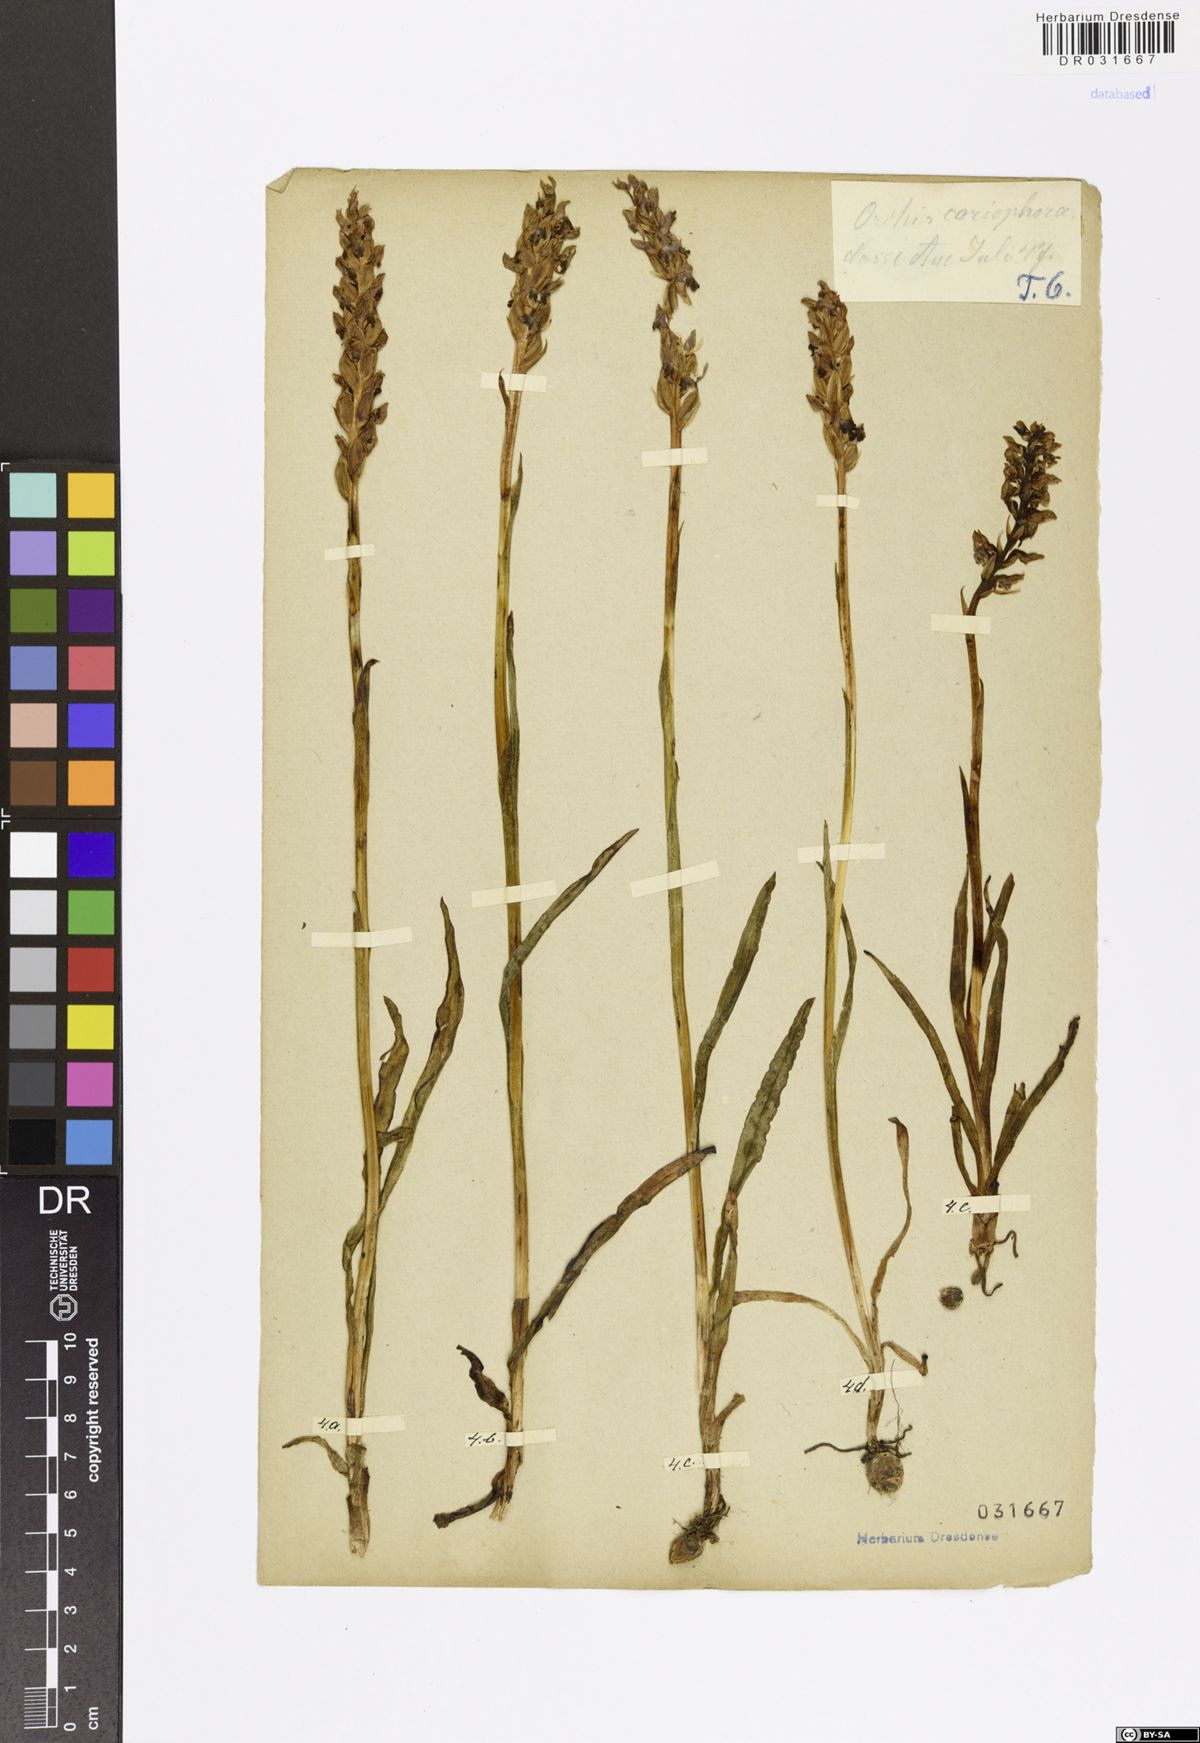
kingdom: Plantae
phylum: Tracheophyta
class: Liliopsida
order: Asparagales
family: Orchidaceae
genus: Anacamptis
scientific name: Anacamptis coriophora
